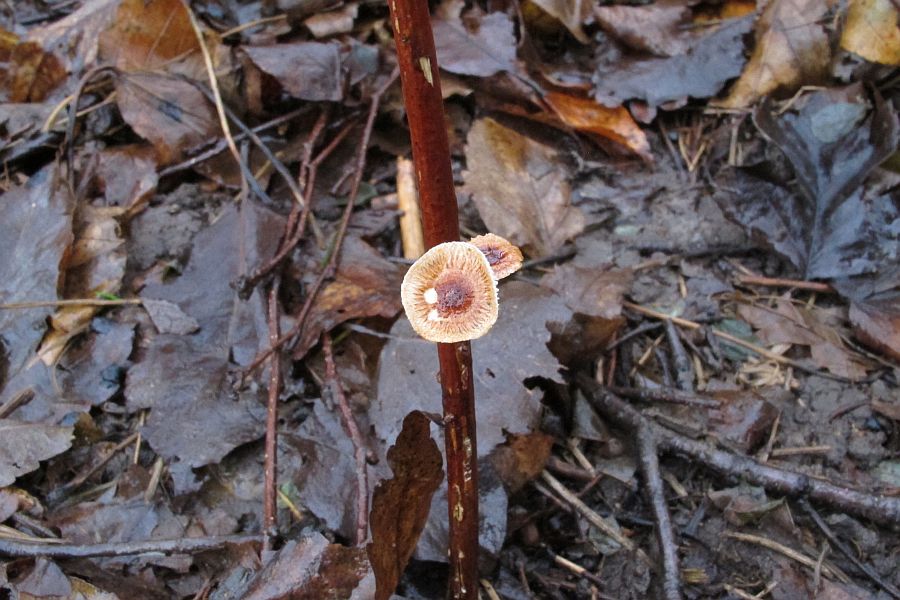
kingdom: Fungi
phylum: Basidiomycota
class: Agaricomycetes
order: Agaricales
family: Marasmiaceae
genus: Crinipellis
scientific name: Crinipellis scabella
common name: børstefod
